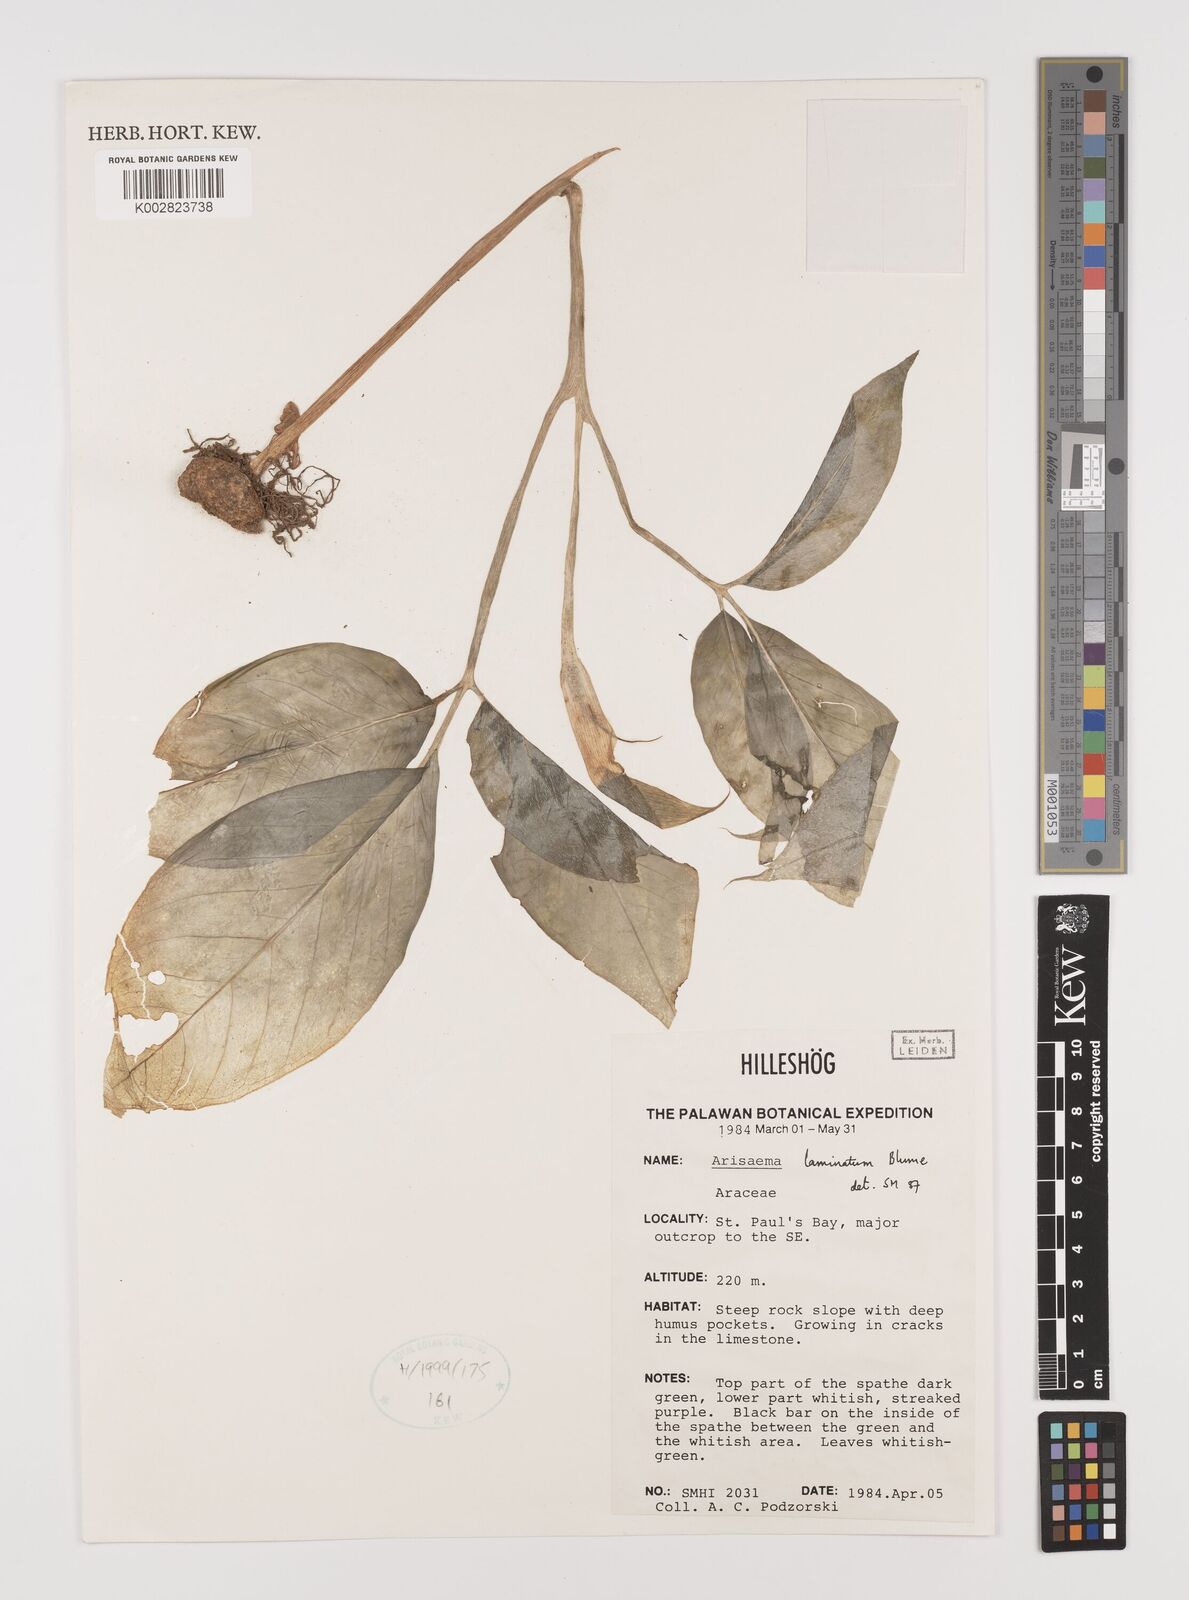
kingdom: Plantae
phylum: Tracheophyta
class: Liliopsida
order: Alismatales
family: Araceae
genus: Arisaema
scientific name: Arisaema laminatum
